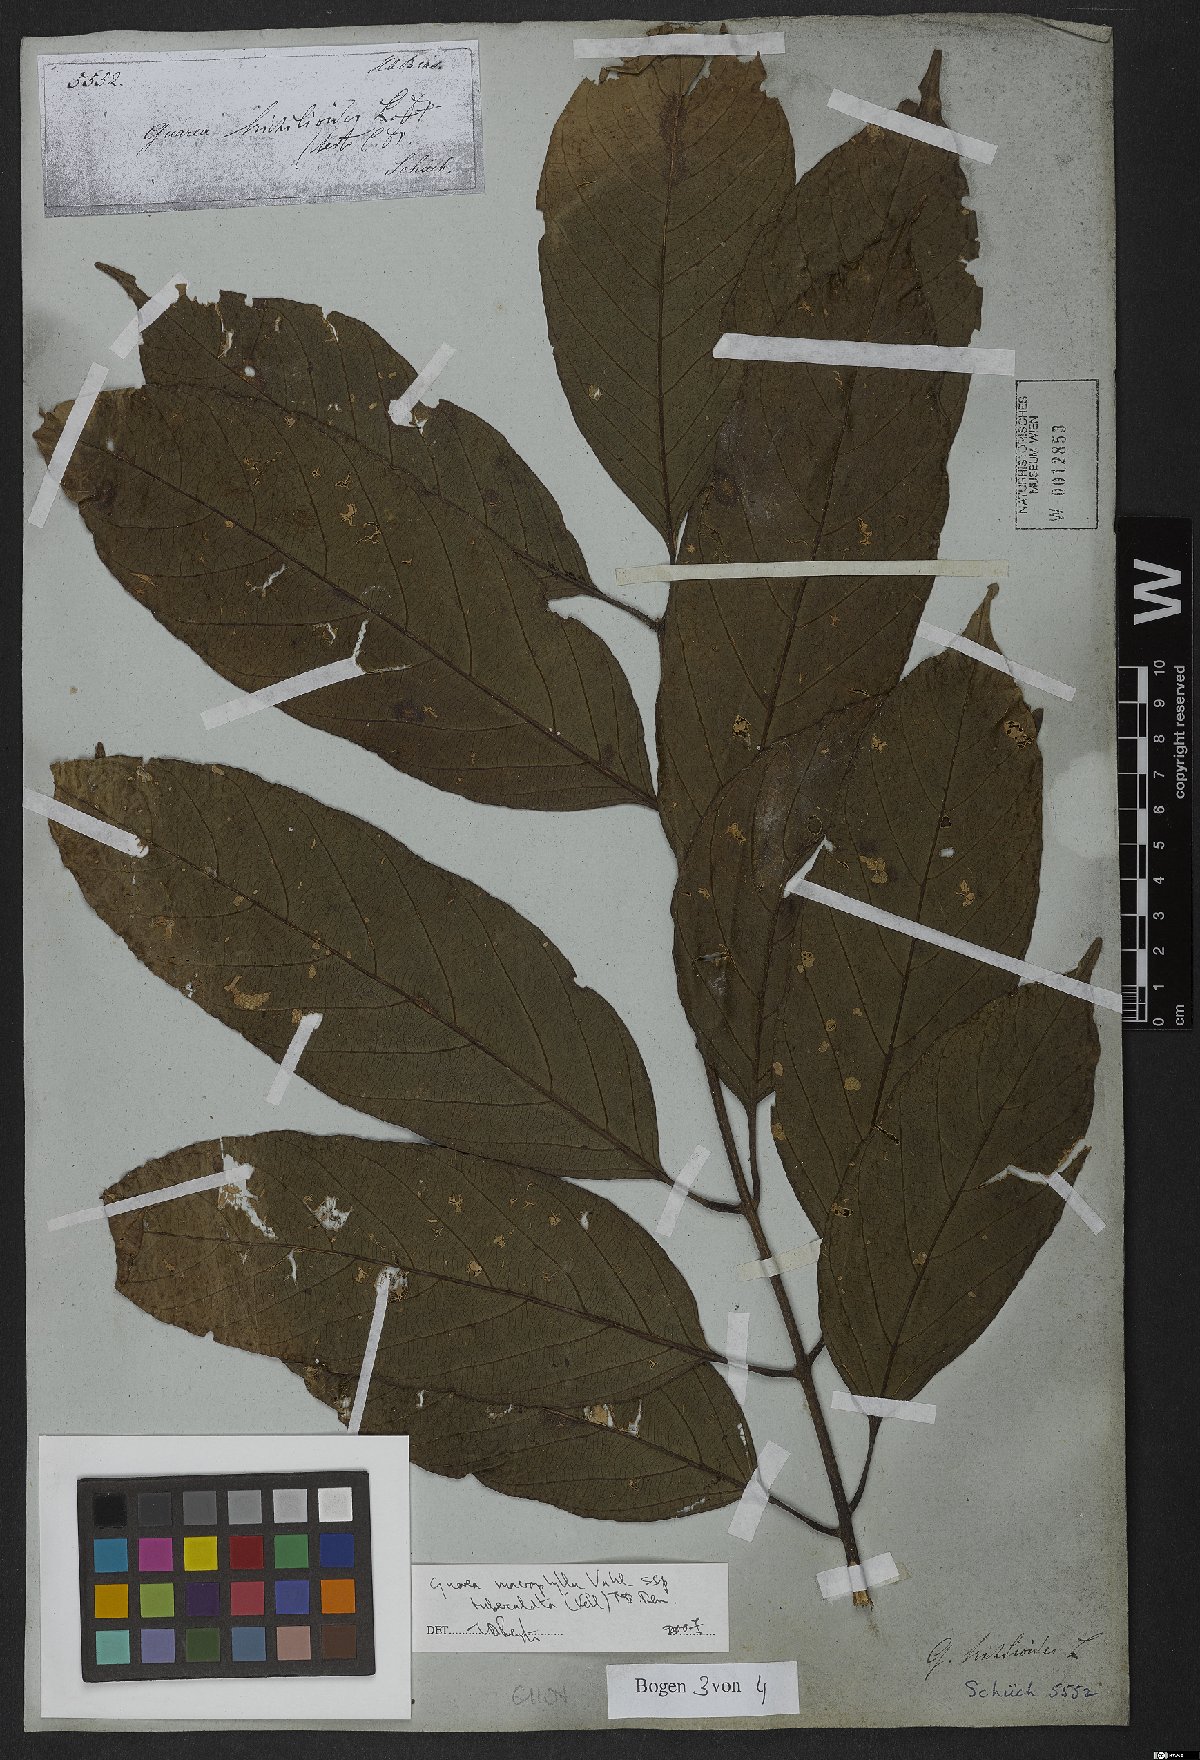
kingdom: Plantae
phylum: Tracheophyta
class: Magnoliopsida
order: Sapindales
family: Meliaceae
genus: Guarea
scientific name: Guarea macrophylla
